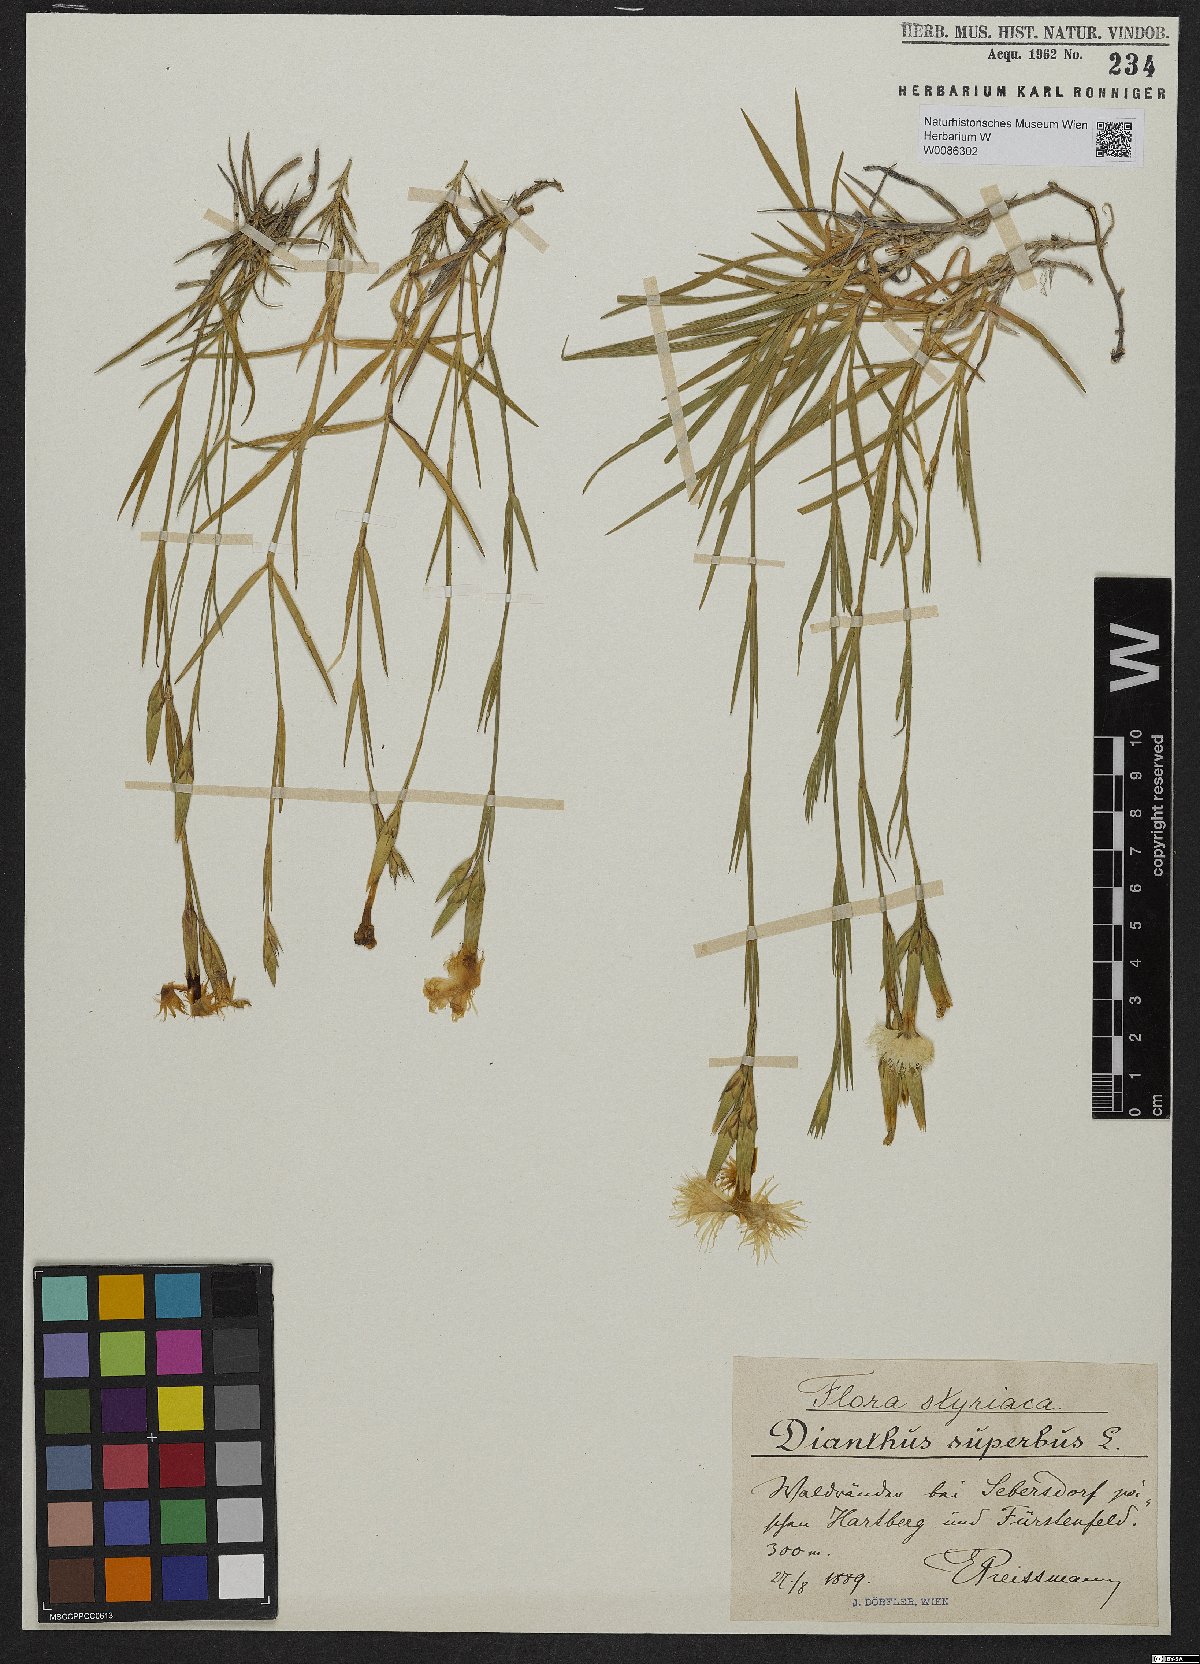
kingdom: Plantae
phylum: Tracheophyta
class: Magnoliopsida
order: Caryophyllales
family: Caryophyllaceae
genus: Dianthus
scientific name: Dianthus superbus
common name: Fringed pink
